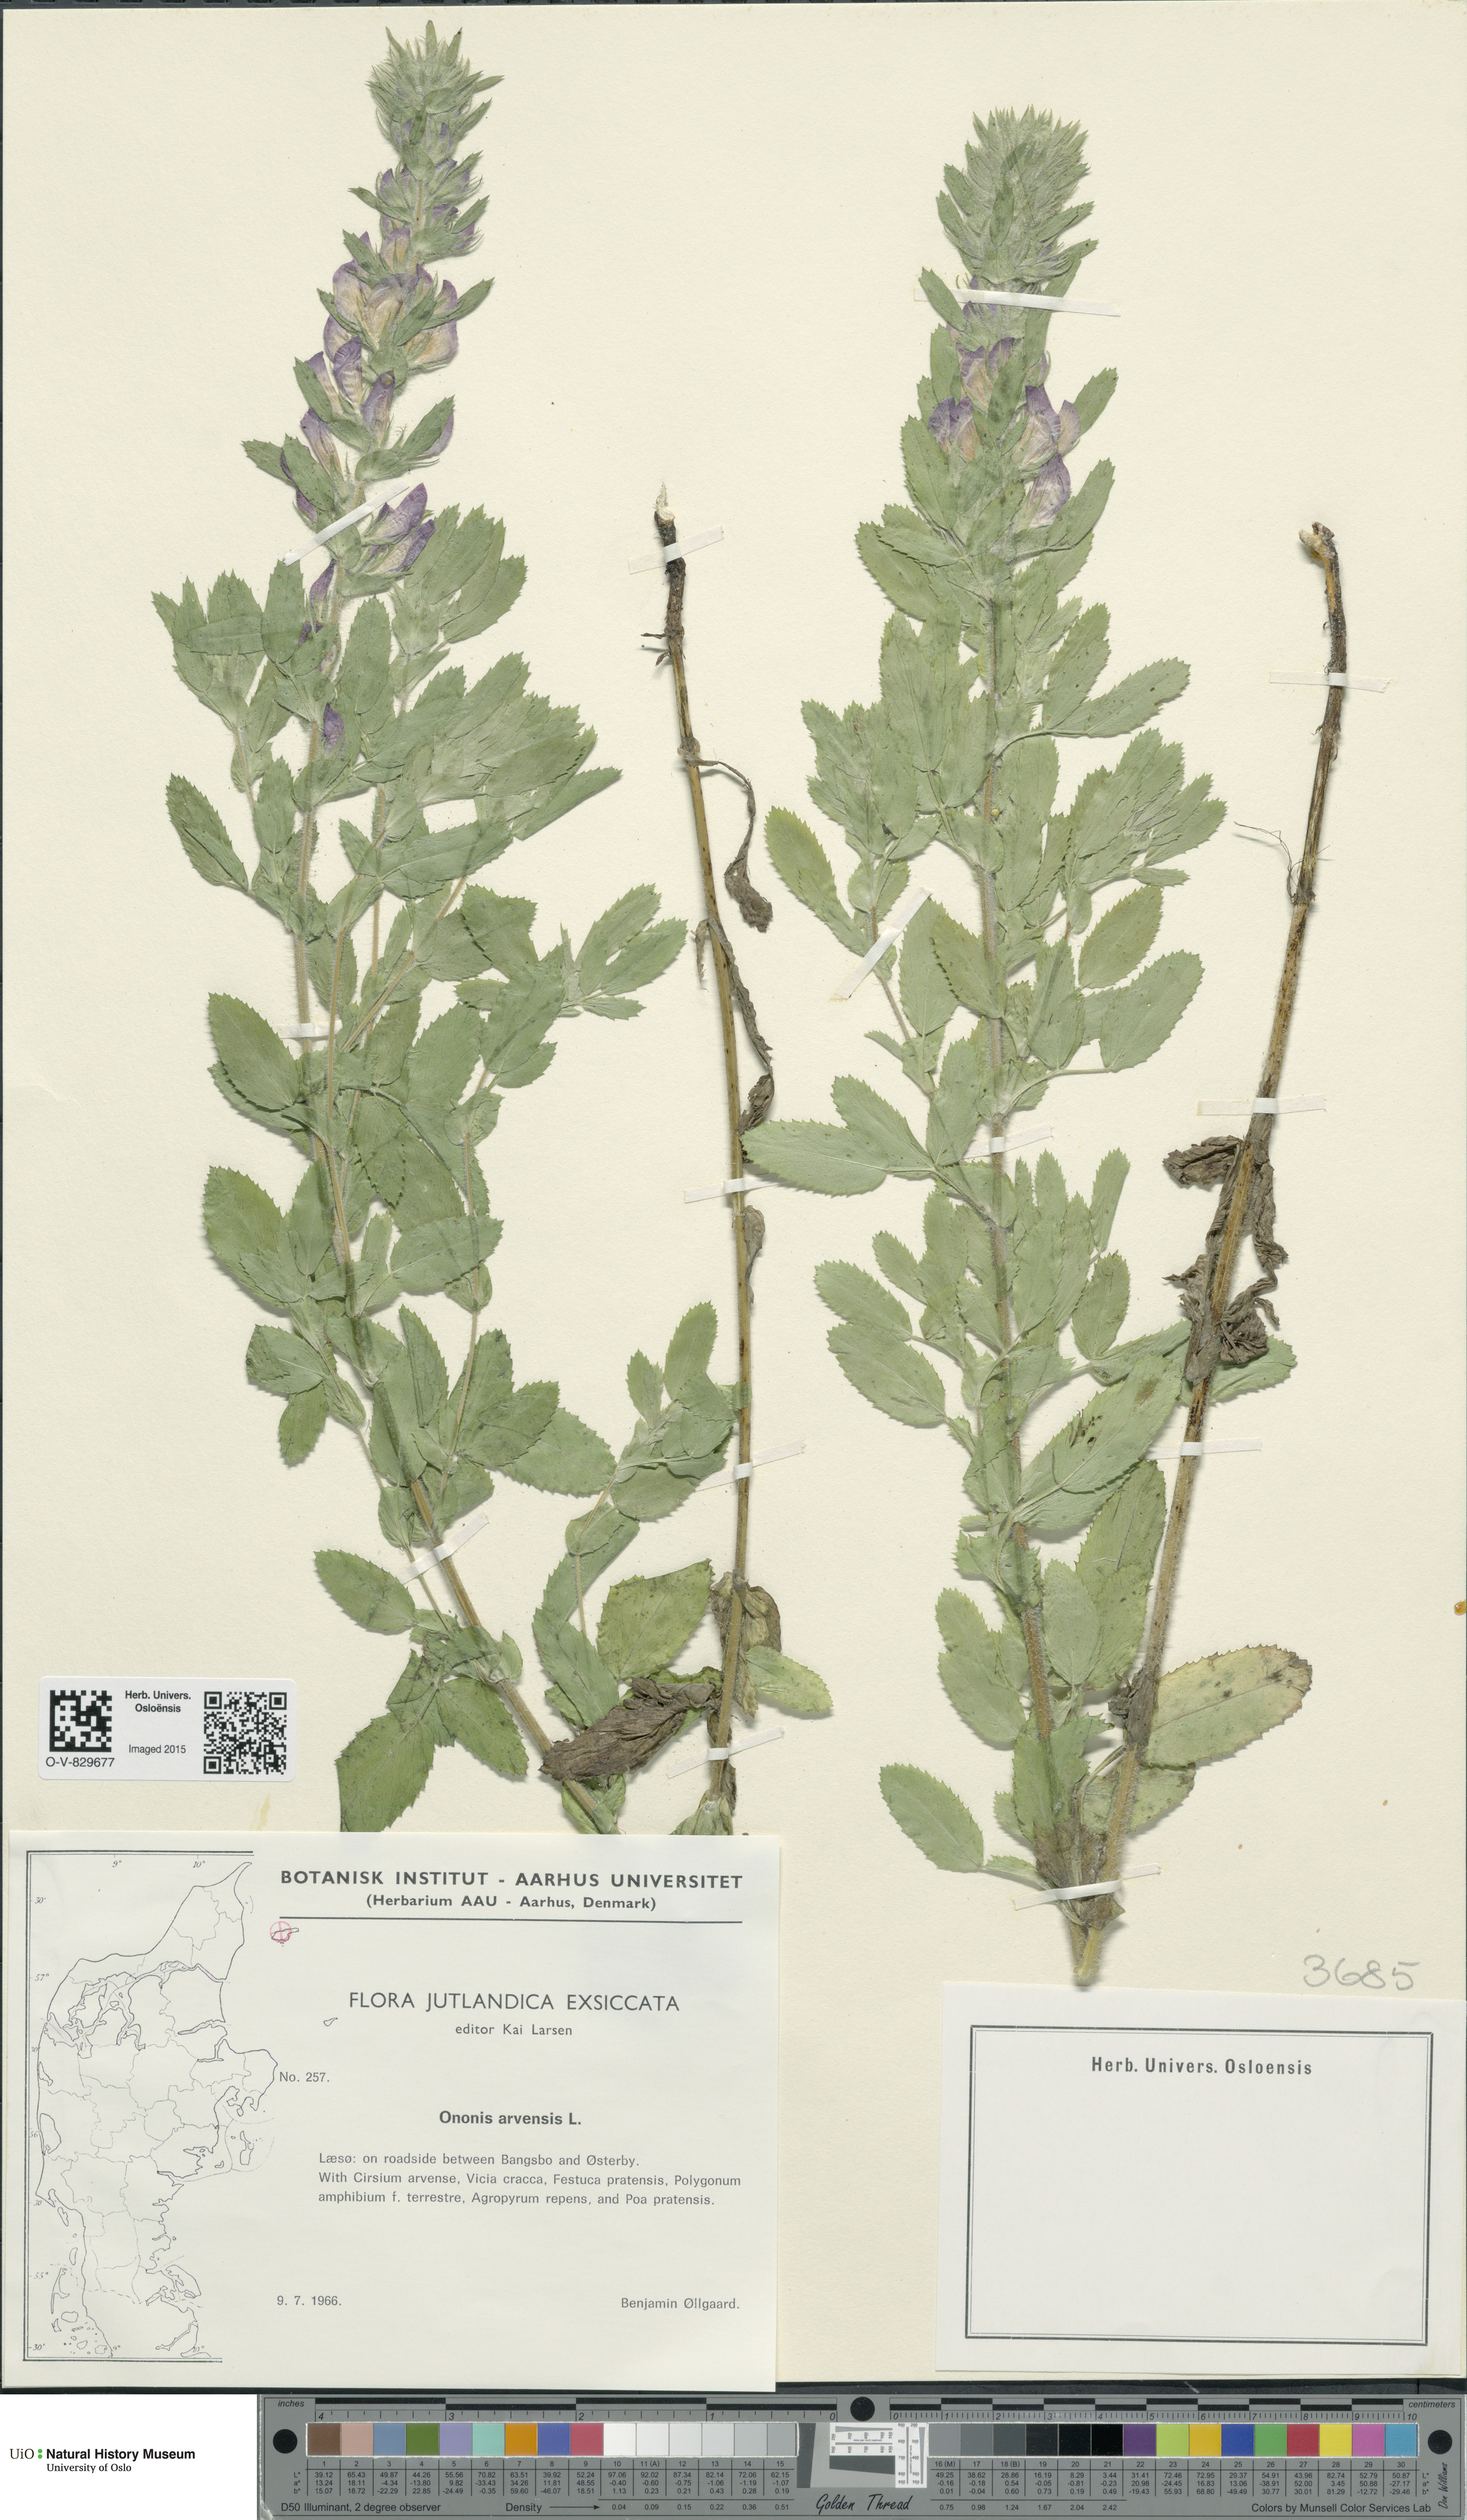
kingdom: Plantae
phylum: Tracheophyta
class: Magnoliopsida
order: Fabales
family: Fabaceae
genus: Ononis
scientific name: Ononis arvensis
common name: Field restharrow
